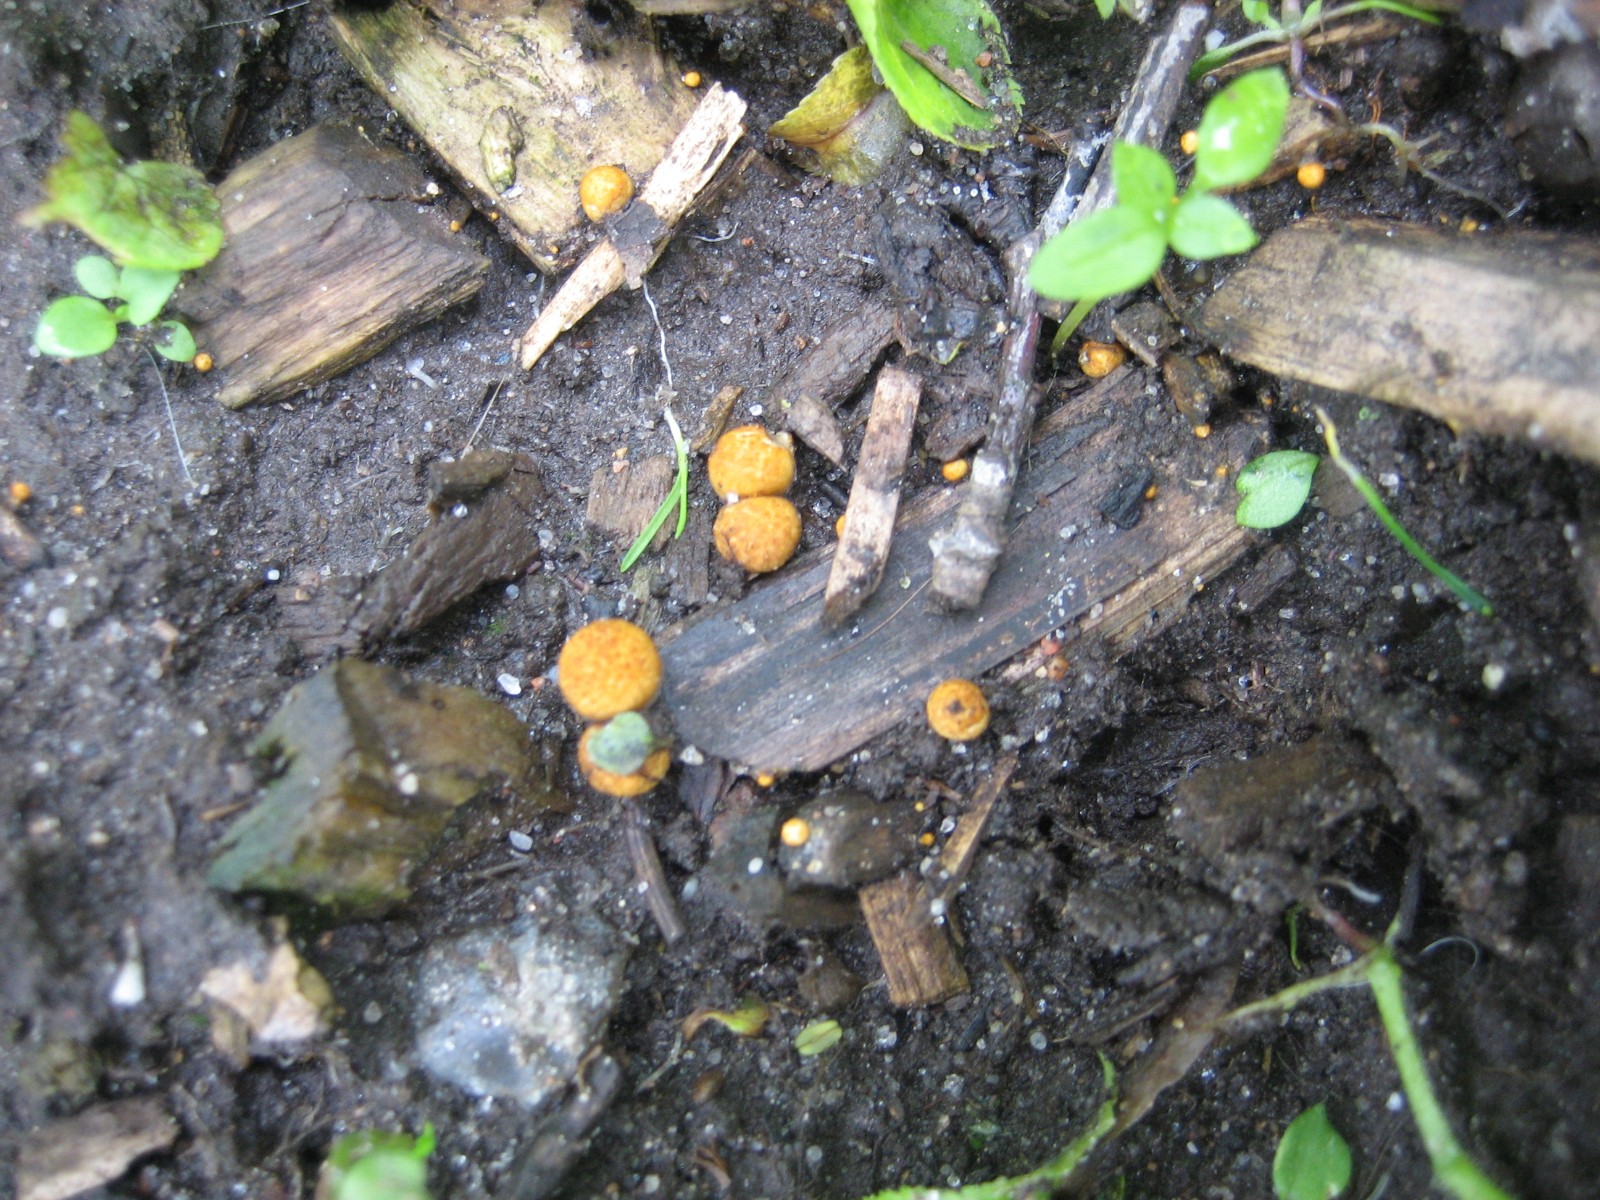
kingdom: Fungi
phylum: Basidiomycota
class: Agaricomycetes
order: Agaricales
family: Nidulariaceae
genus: Crucibulum
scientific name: Crucibulum crucibuliforme
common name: krukkesvamp
